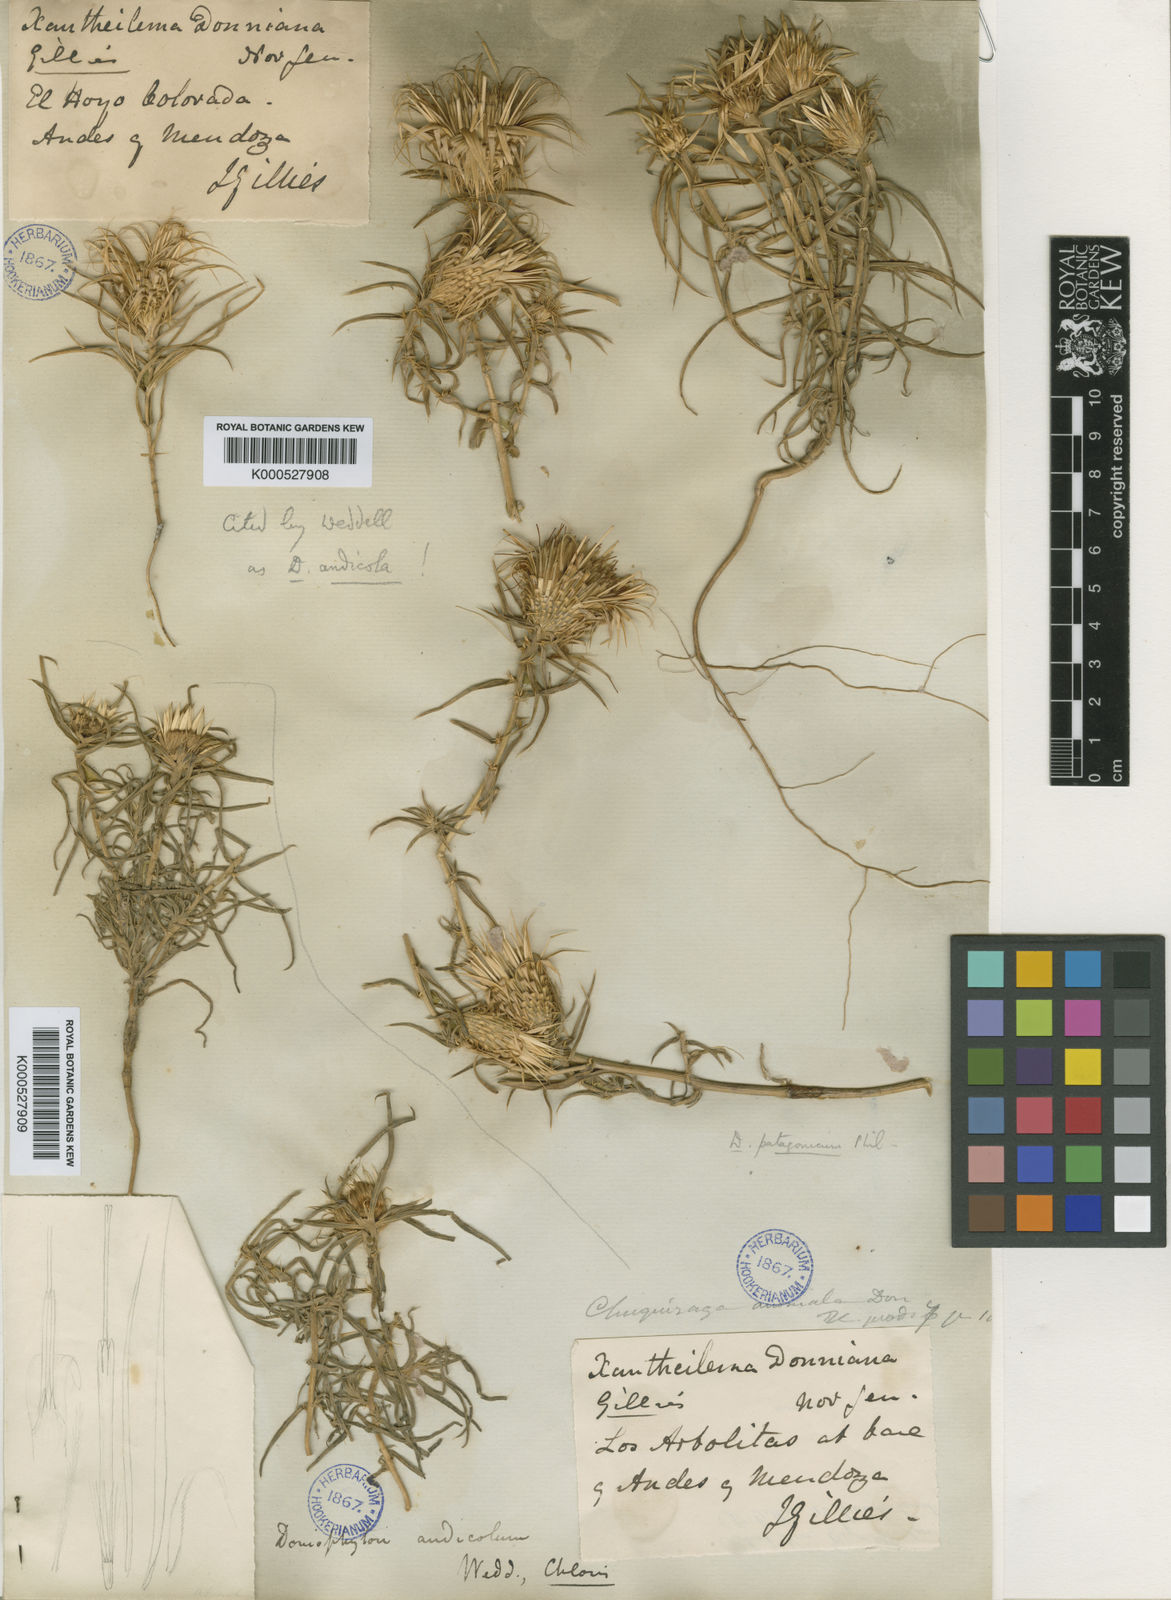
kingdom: Plantae
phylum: Tracheophyta
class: Magnoliopsida
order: Asterales
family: Asteraceae
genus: Doniophyton
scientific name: Doniophyton anomalum
